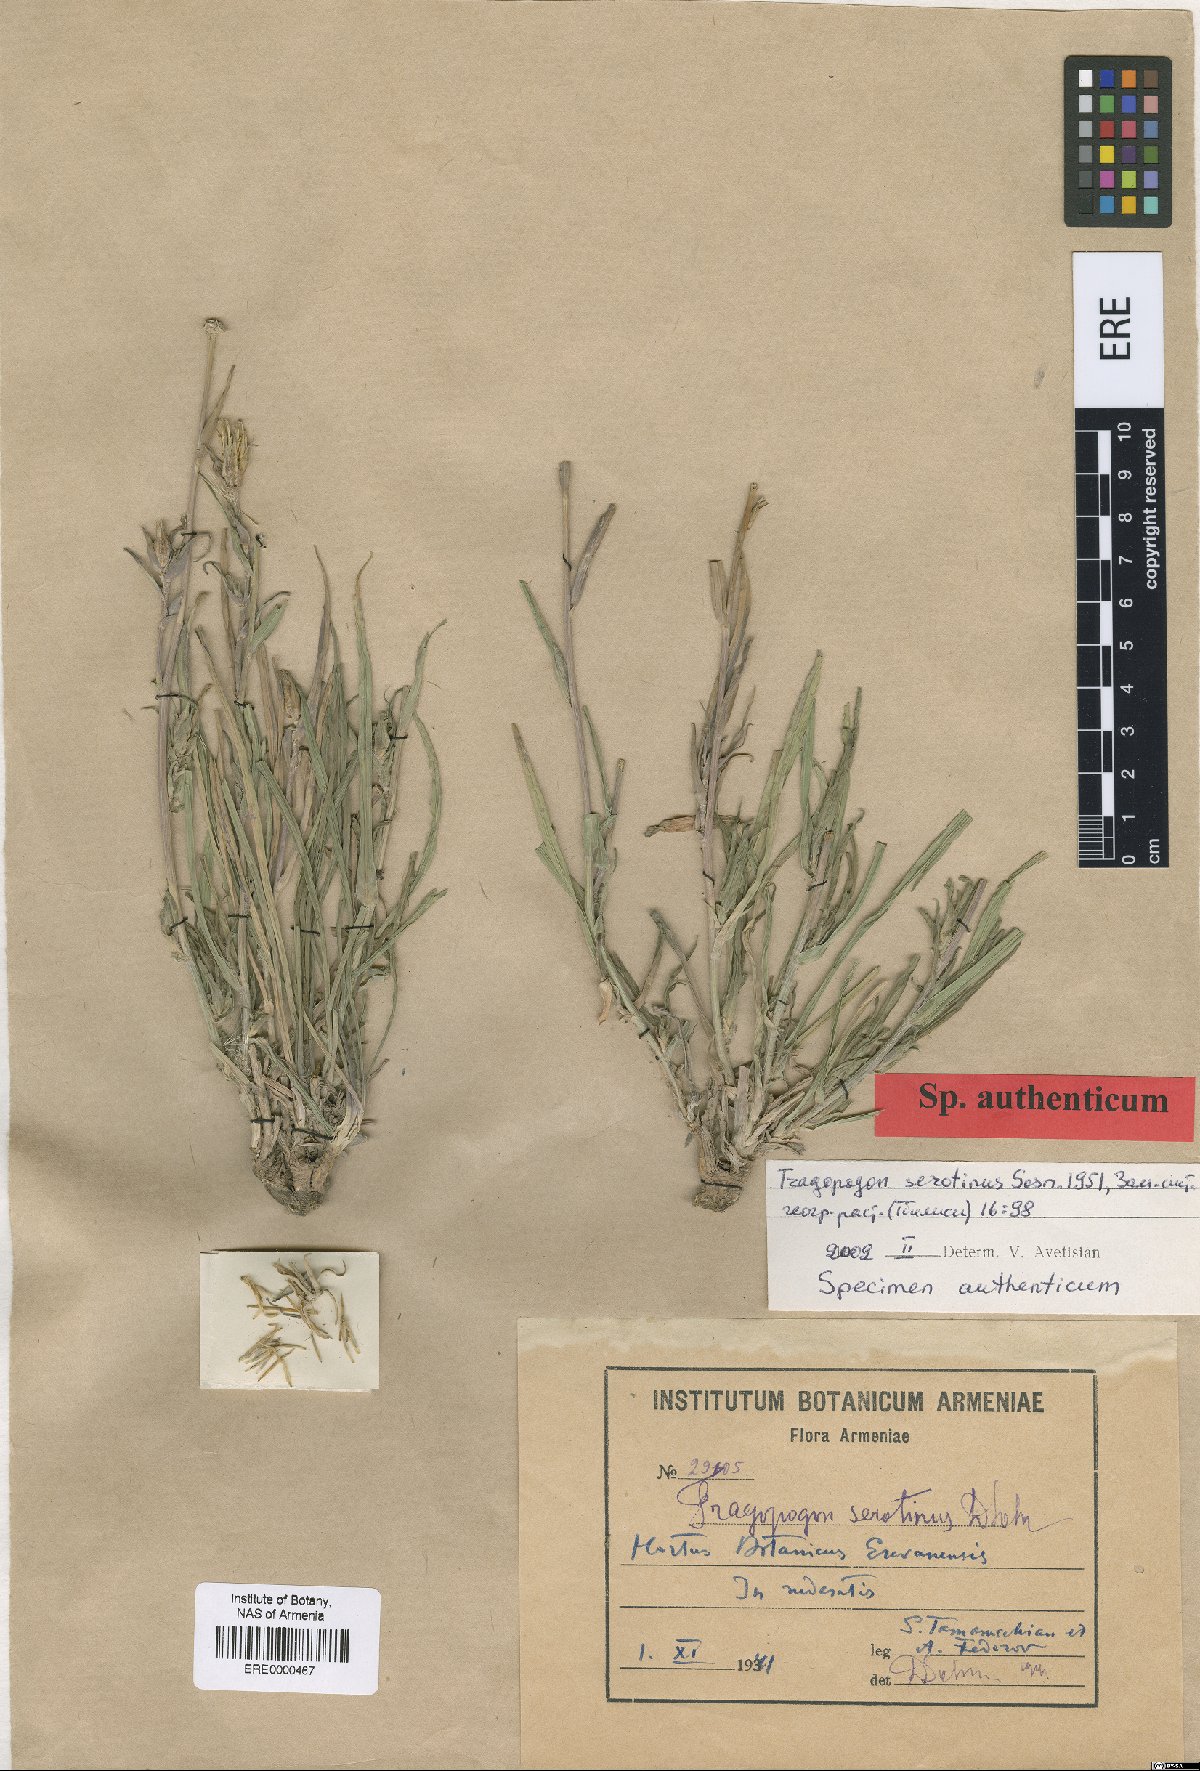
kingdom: Plantae
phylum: Tracheophyta
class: Magnoliopsida
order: Asterales
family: Asteraceae
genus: Tragopogon
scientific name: Tragopogon serotinus
